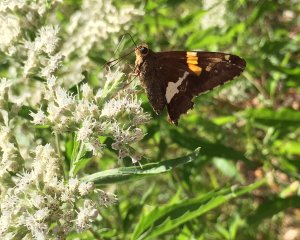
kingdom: Animalia
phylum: Arthropoda
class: Insecta
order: Lepidoptera
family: Hesperiidae
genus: Epargyreus
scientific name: Epargyreus clarus
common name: Silver-spotted Skipper
